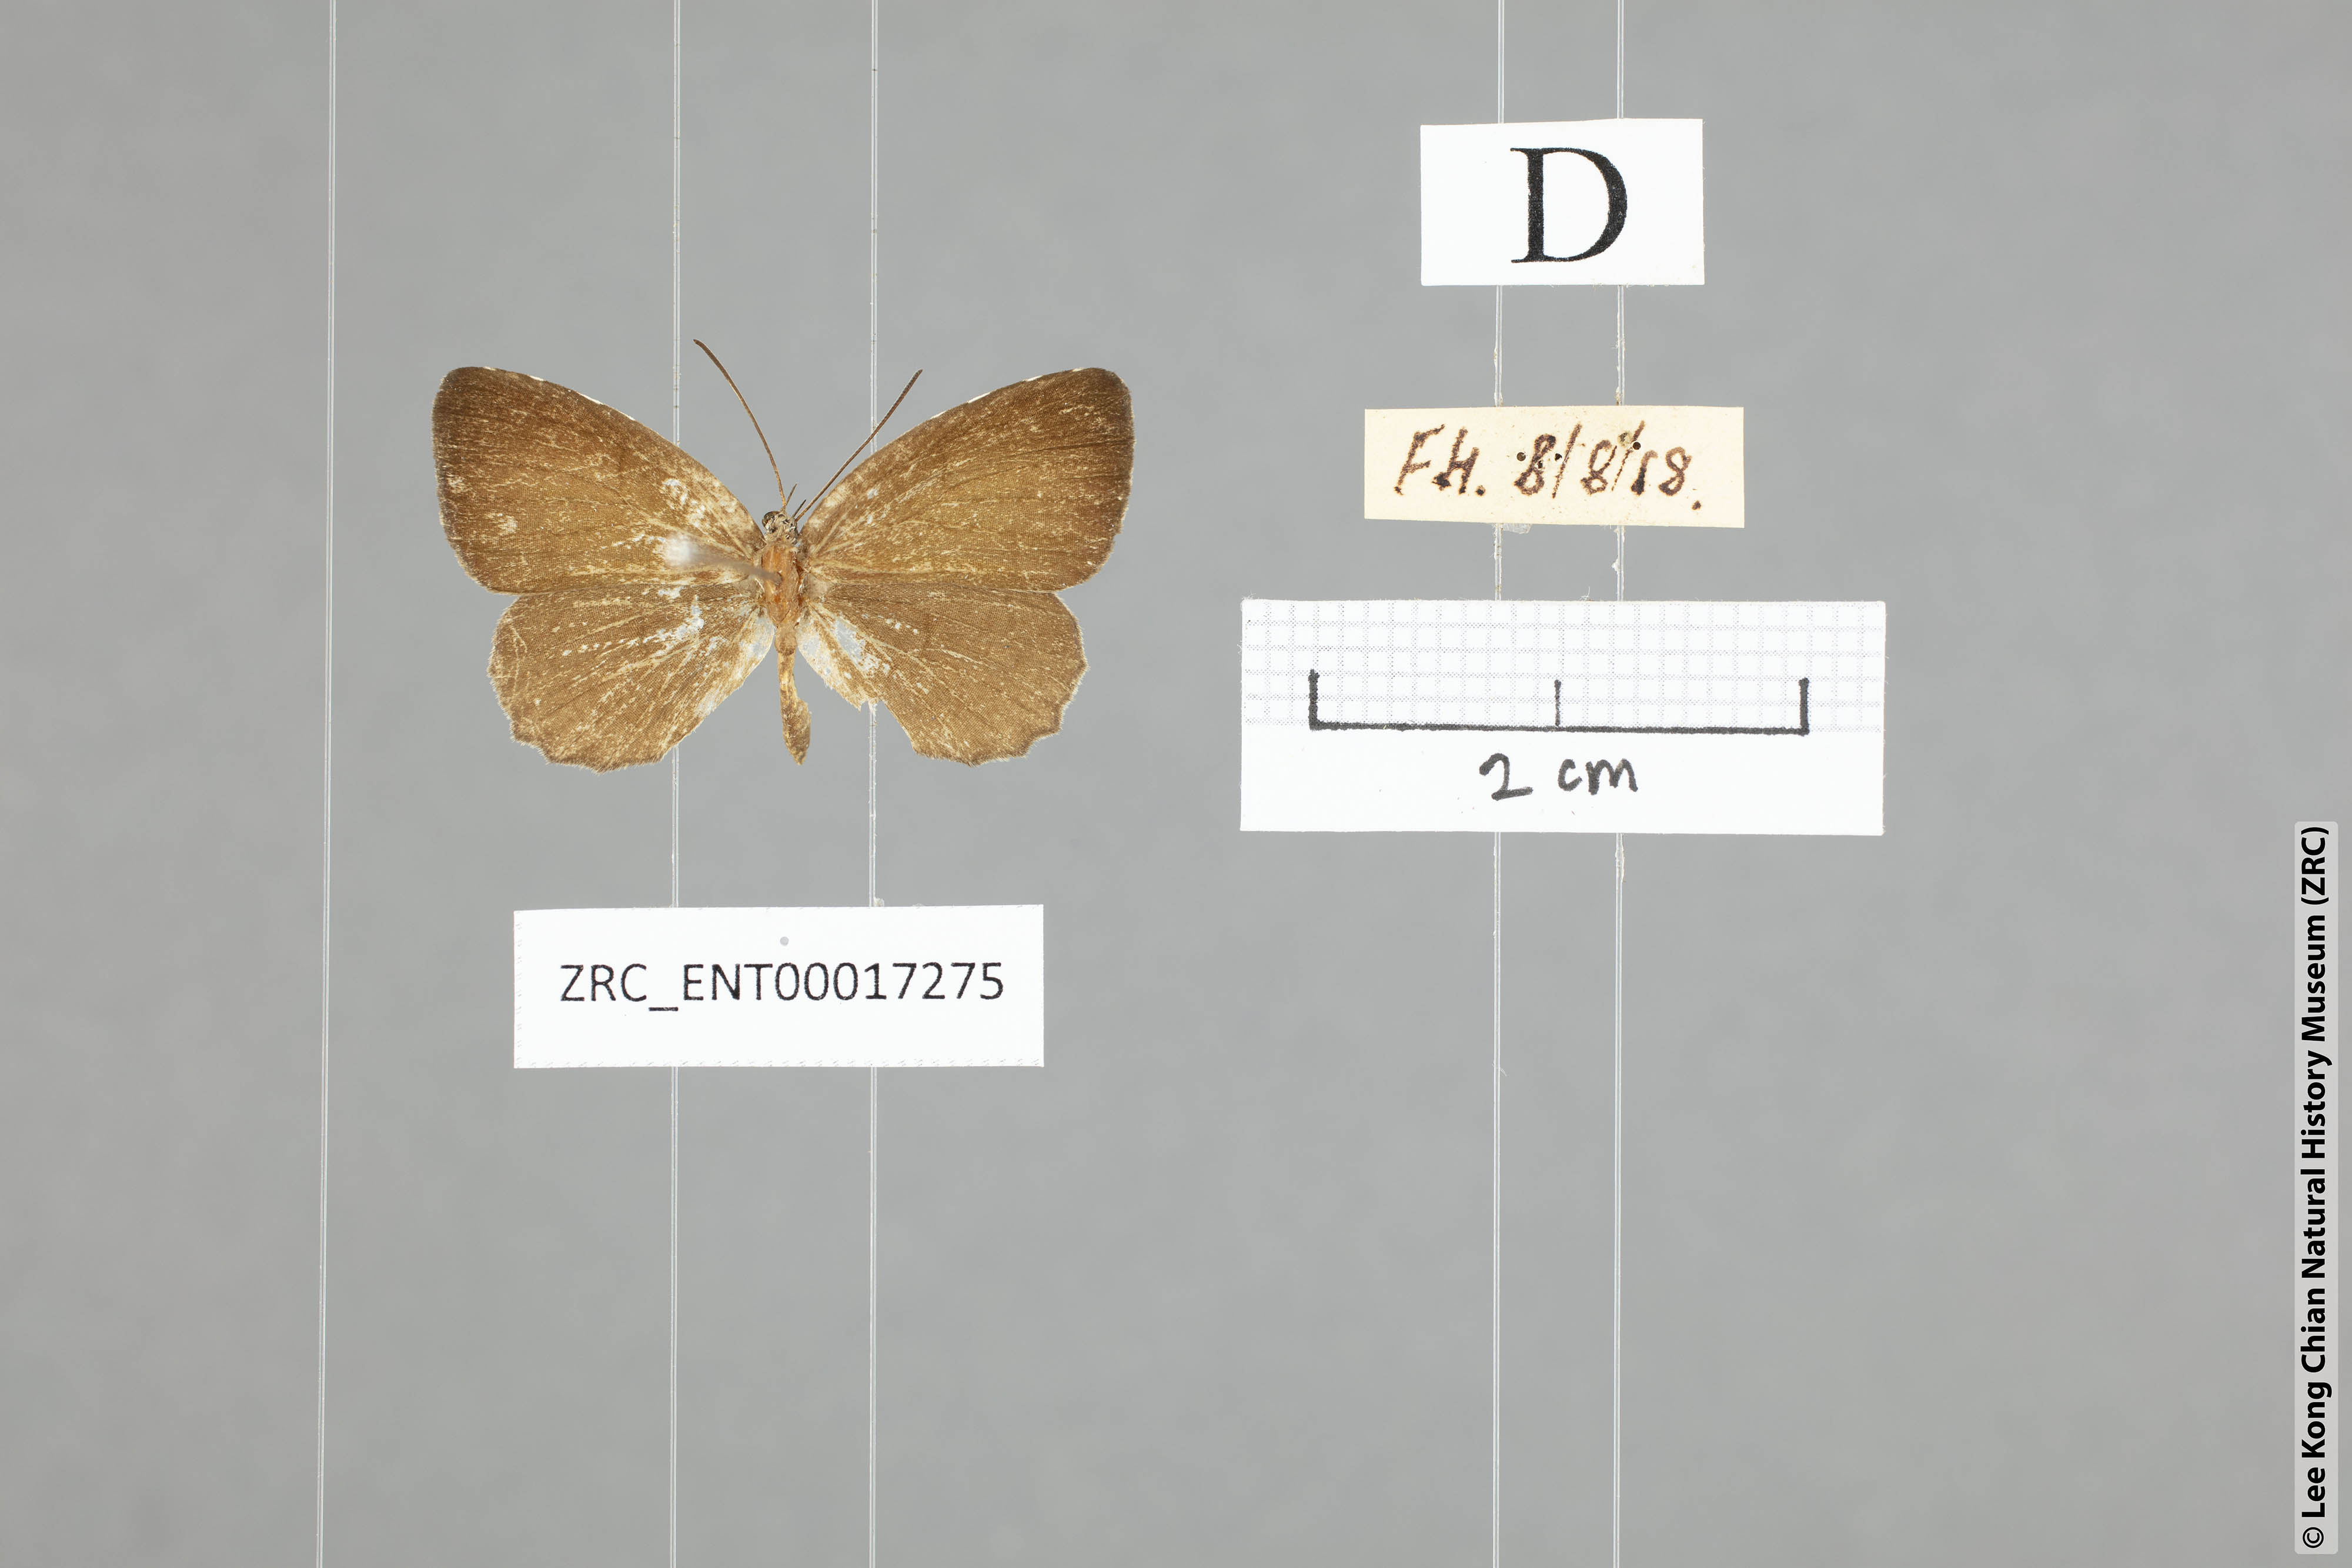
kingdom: Animalia
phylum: Arthropoda
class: Insecta
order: Lepidoptera
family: Lycaenidae
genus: Allotinus
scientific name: Allotinus portunus
